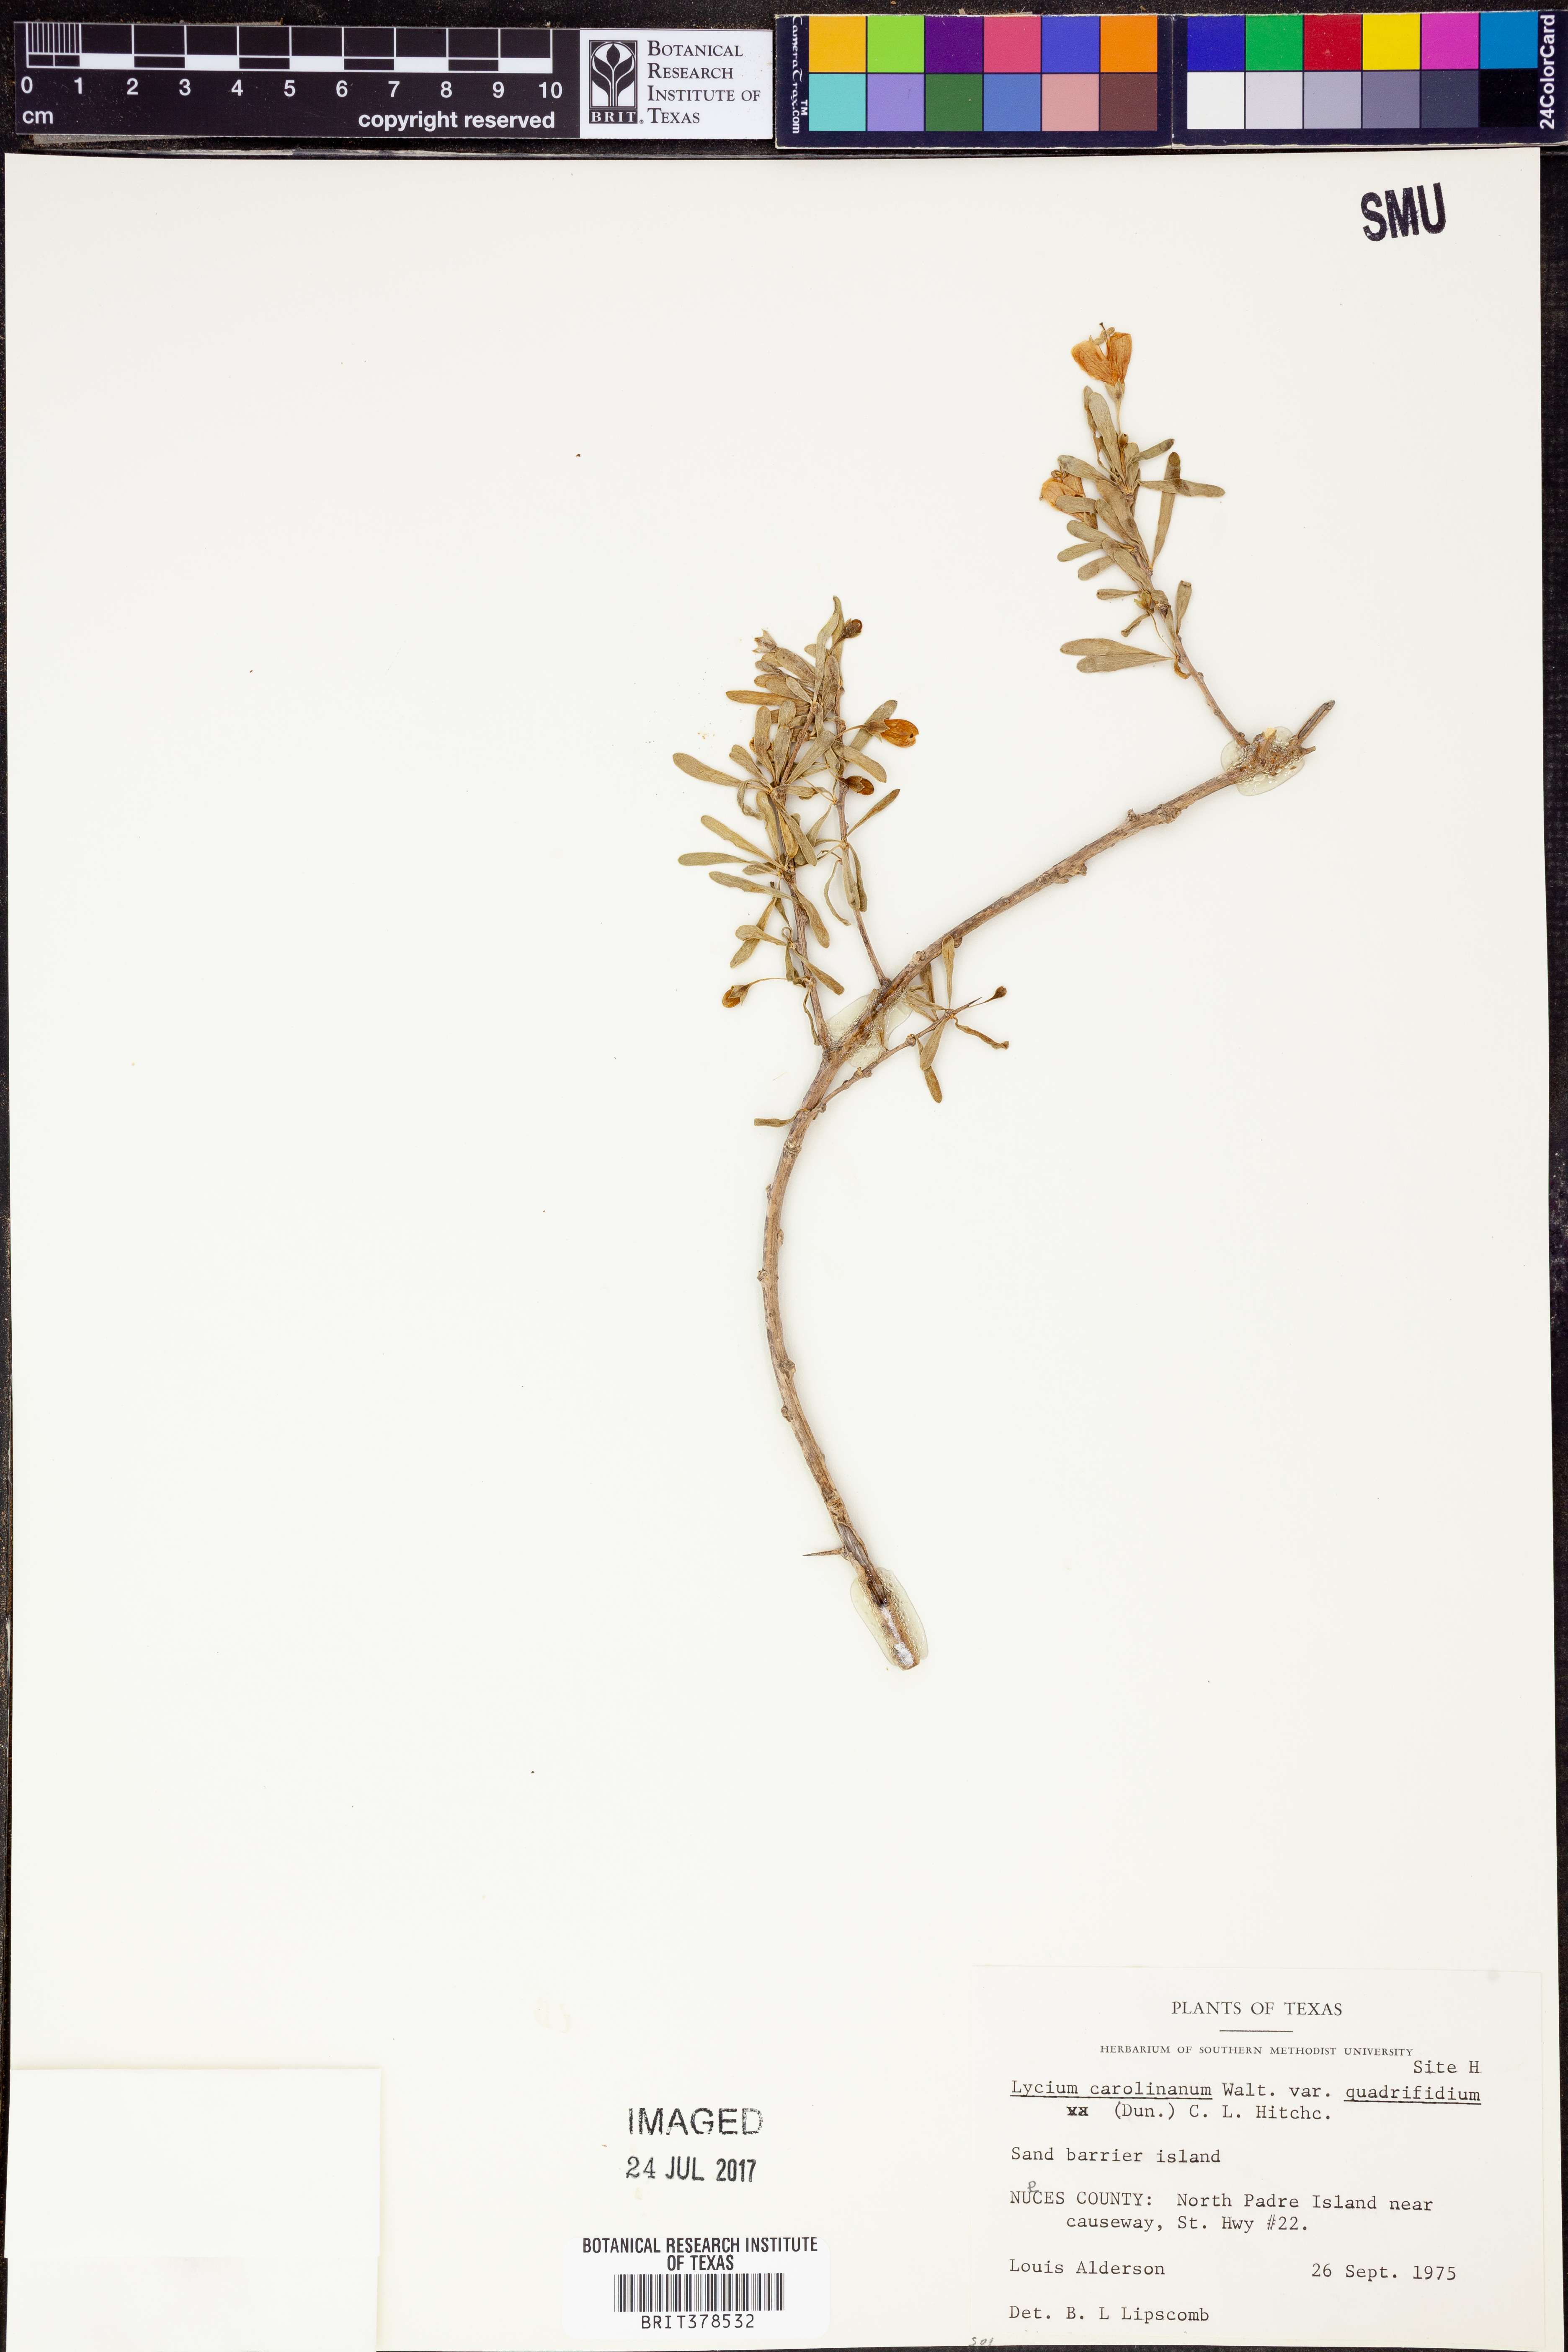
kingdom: Plantae
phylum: Tracheophyta
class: Magnoliopsida
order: Solanales
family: Solanaceae
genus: Lycium
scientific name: Lycium carolinianum
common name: Christmasberry
